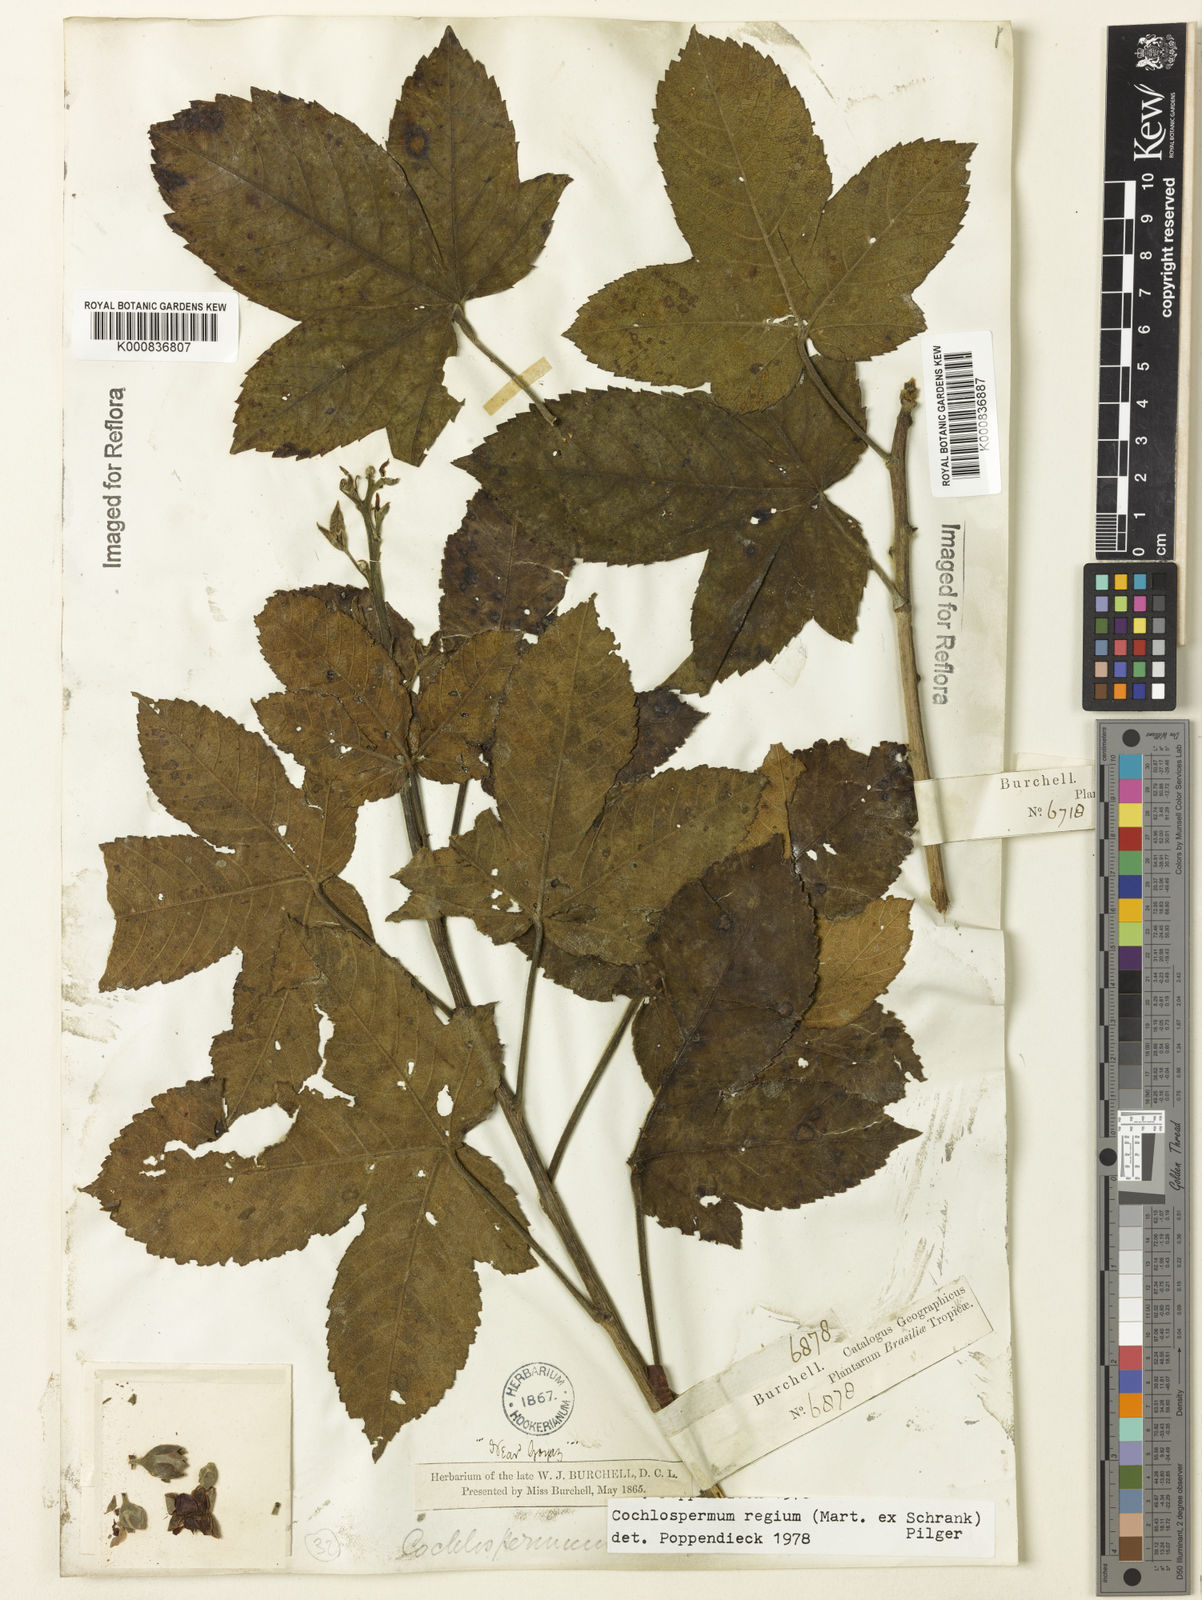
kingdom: Plantae
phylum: Tracheophyta
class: Magnoliopsida
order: Malvales
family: Cochlospermaceae
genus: Cochlospermum
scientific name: Cochlospermum regium
